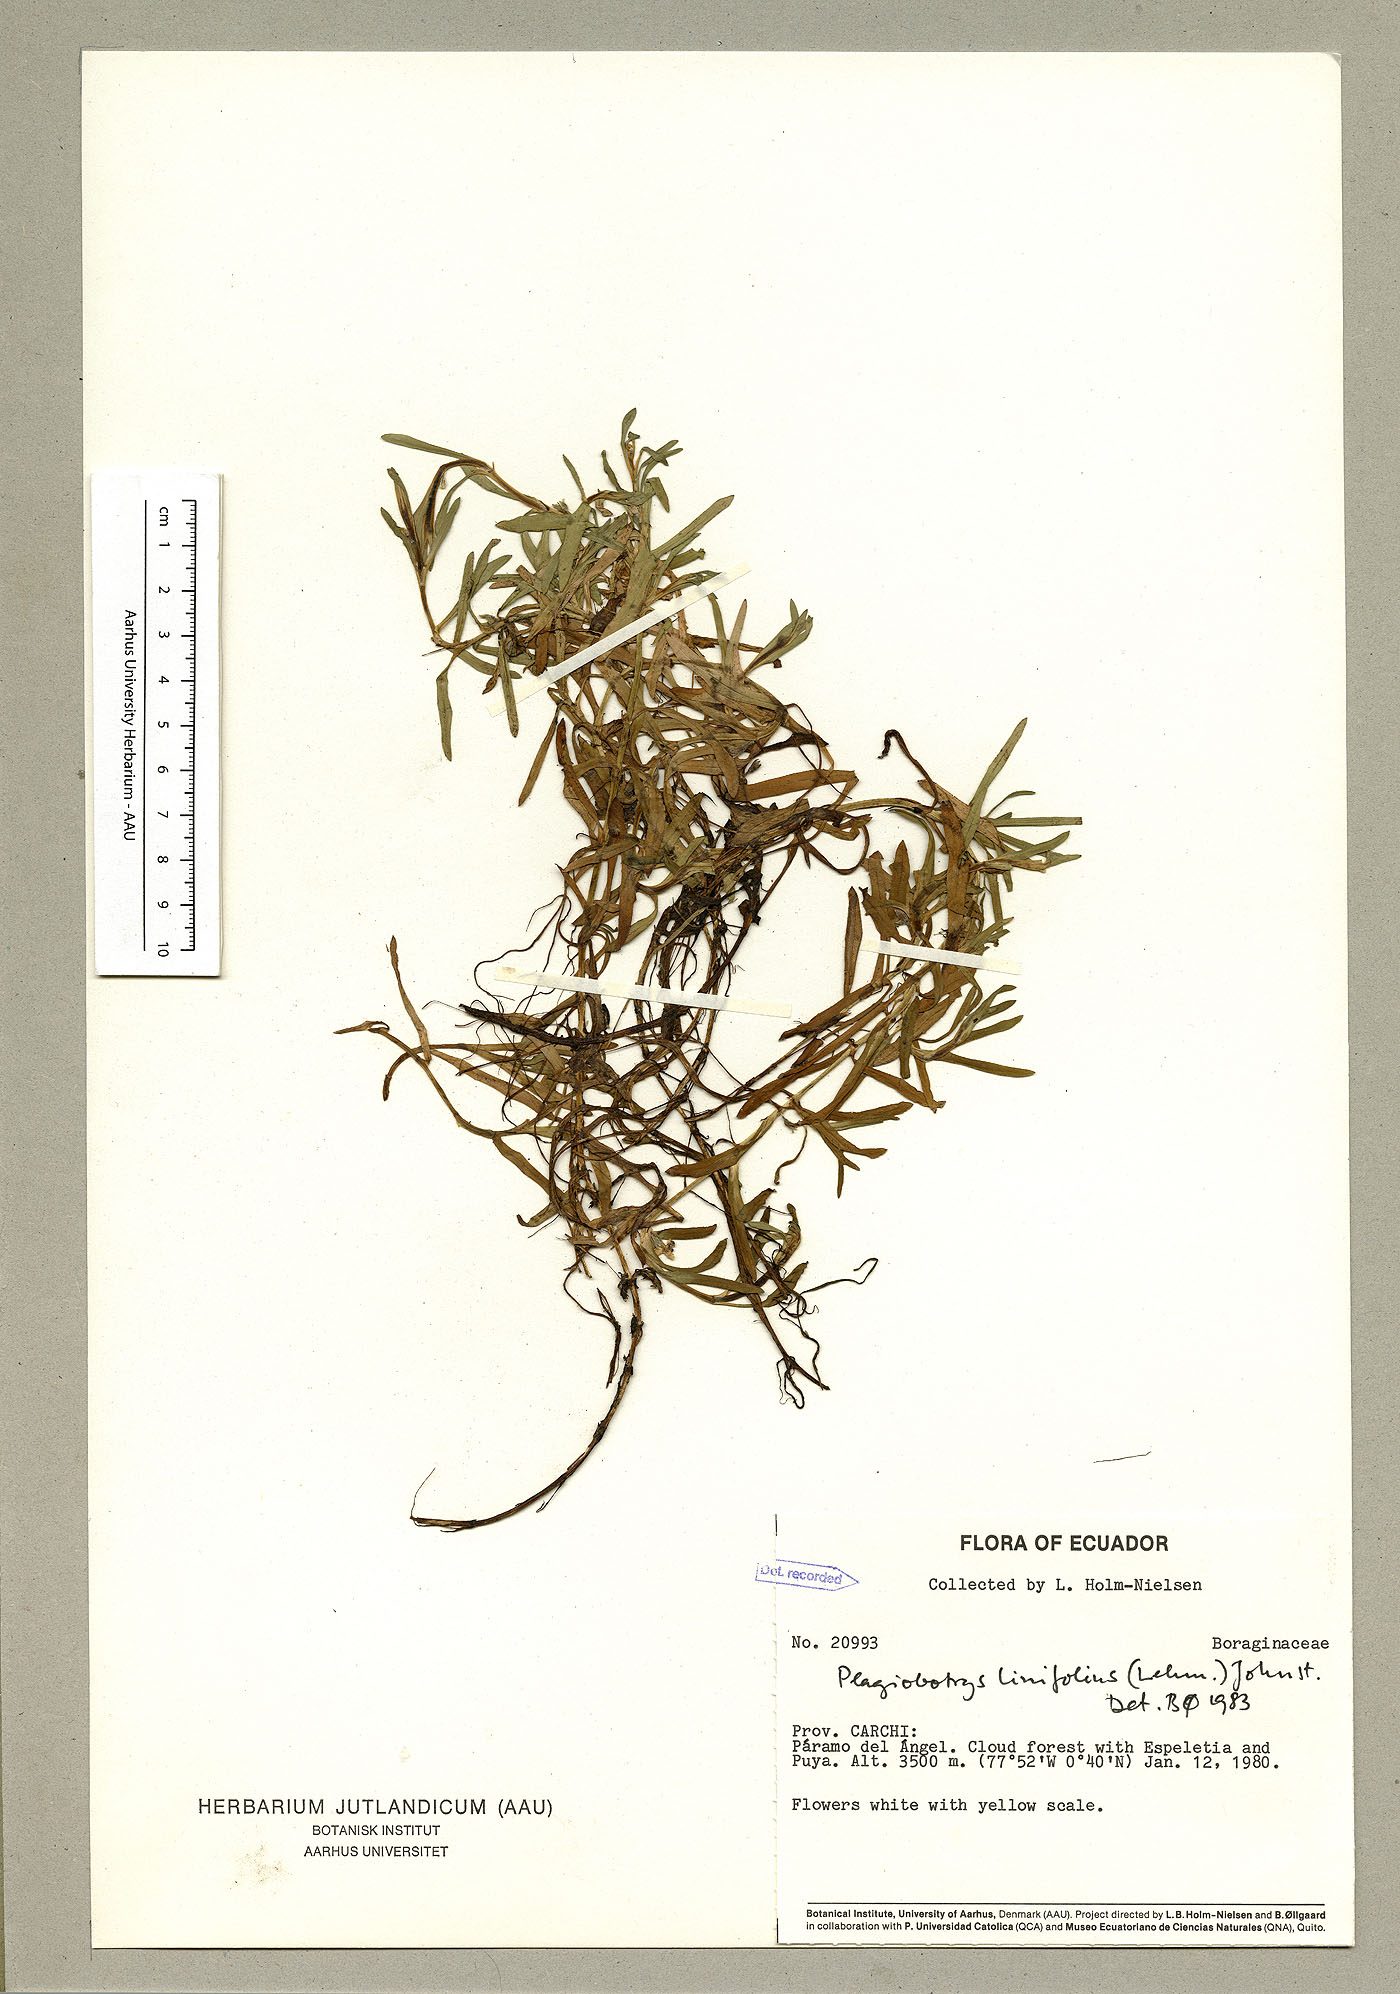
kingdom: Plantae
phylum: Tracheophyta
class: Magnoliopsida
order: Boraginales
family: Boraginaceae
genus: Plagiobothrys
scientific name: Plagiobothrys linifolius
